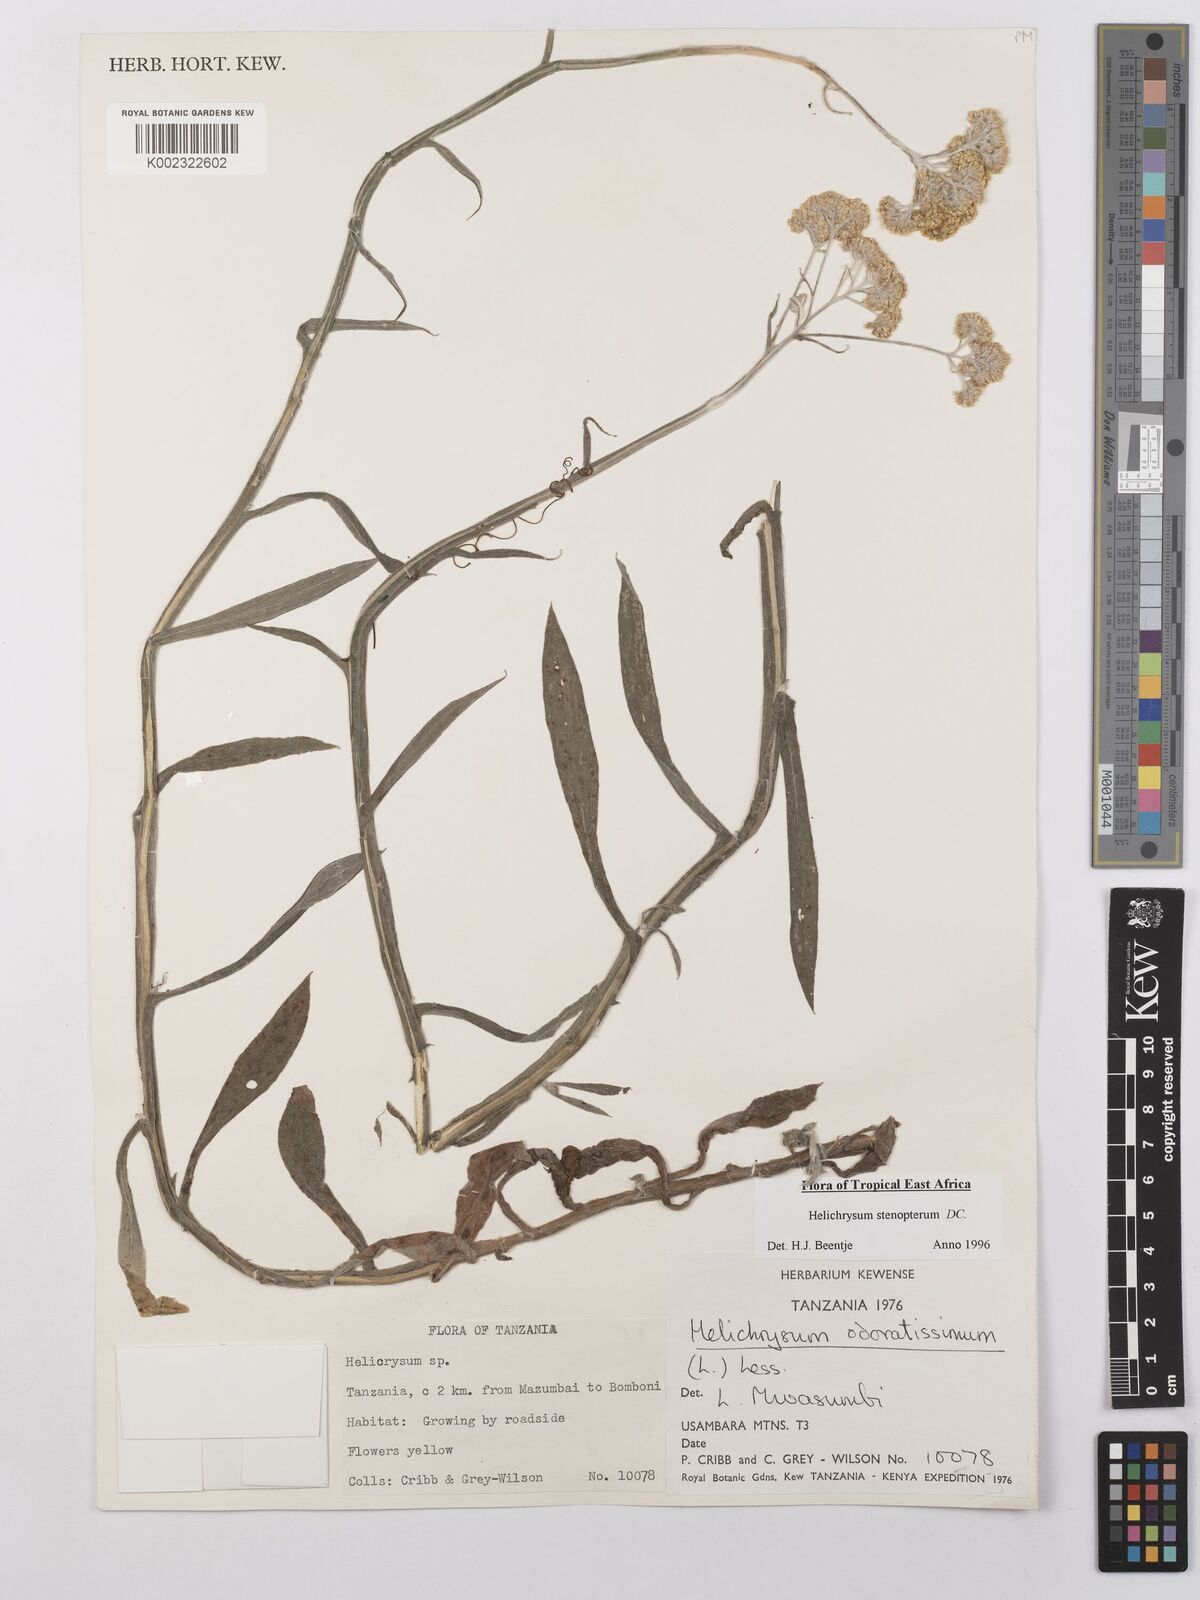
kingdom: Plantae
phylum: Tracheophyta
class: Magnoliopsida
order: Asterales
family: Asteraceae
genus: Helichrysum
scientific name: Helichrysum stenopterum
